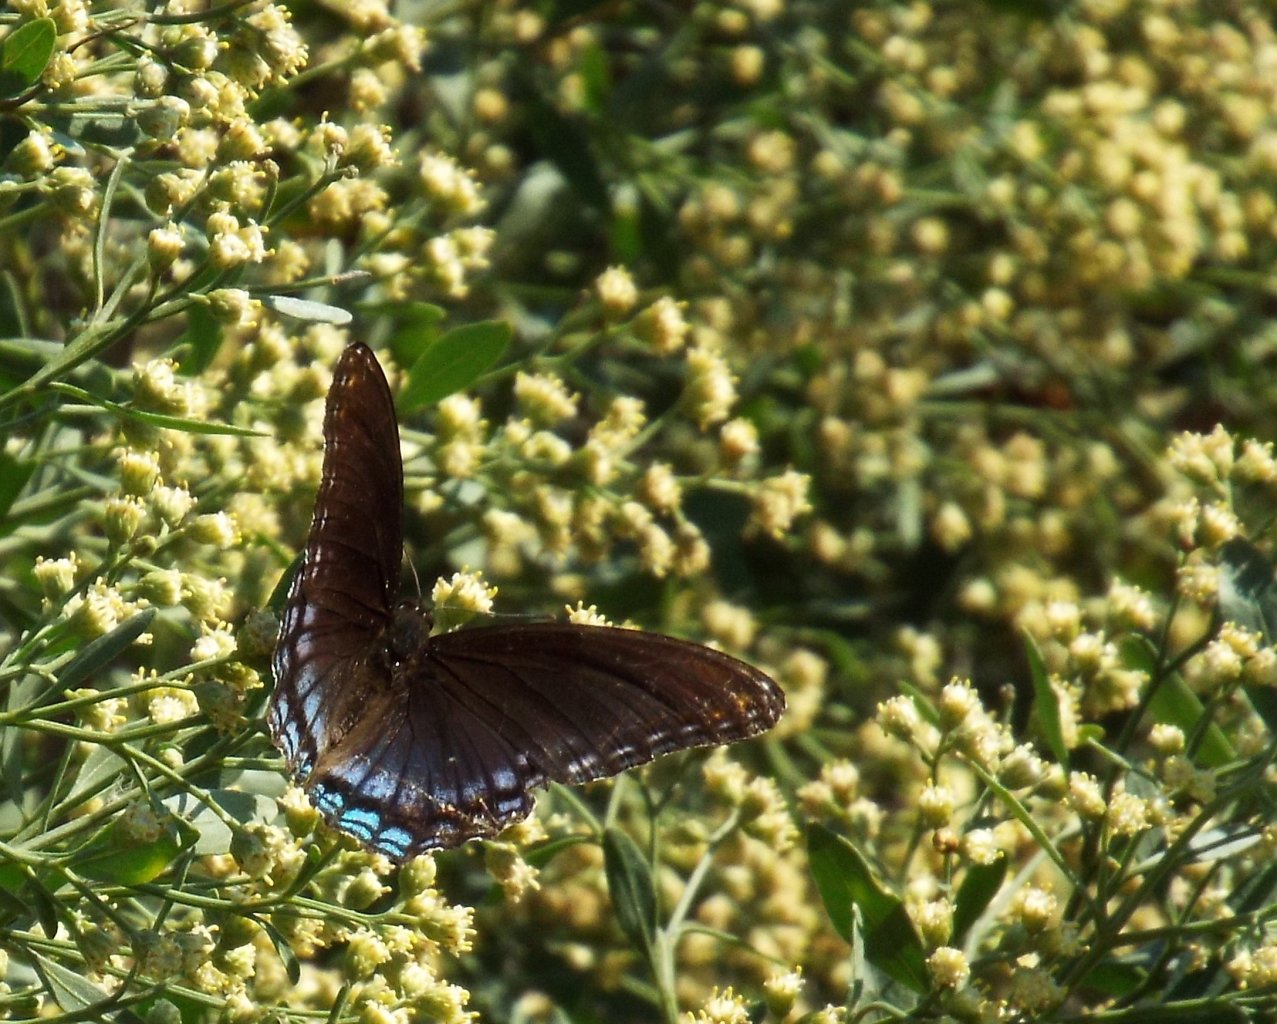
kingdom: Animalia
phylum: Arthropoda
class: Insecta
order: Lepidoptera
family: Nymphalidae
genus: Limenitis
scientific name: Limenitis astyanax
